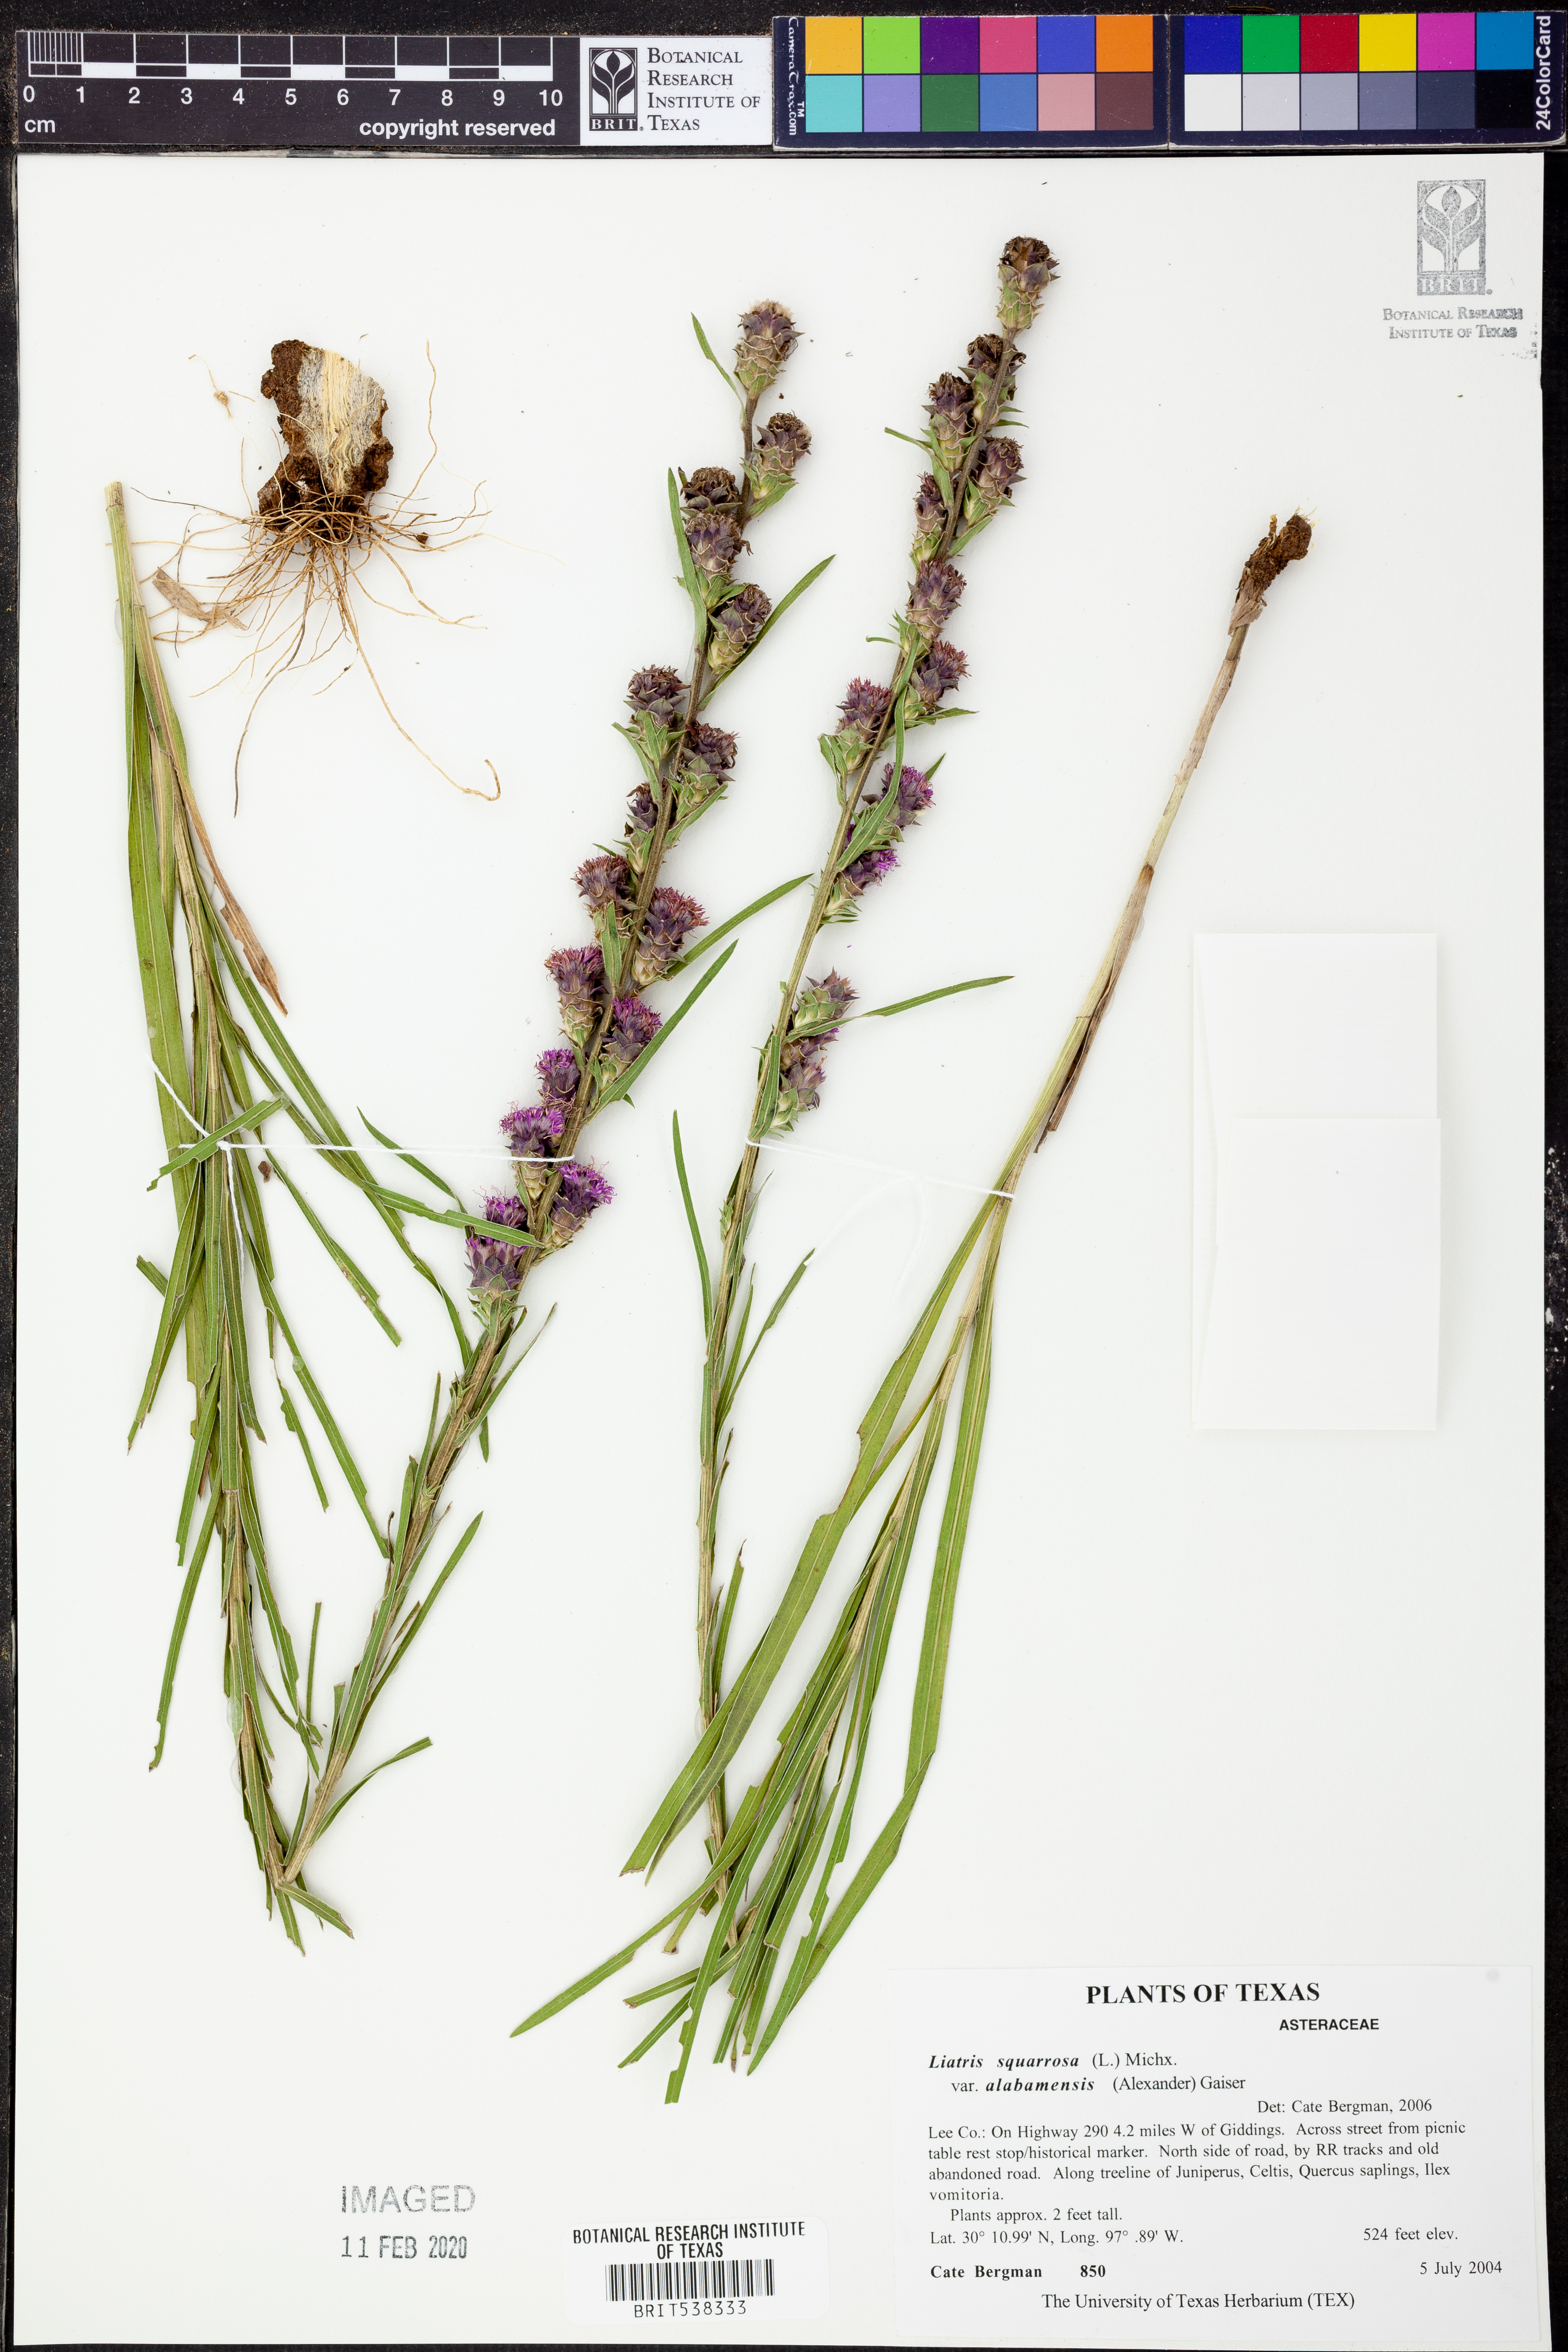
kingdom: Plantae
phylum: Tracheophyta
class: Magnoliopsida
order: Asterales
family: Asteraceae
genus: Liatris
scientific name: Liatris squarrosa
